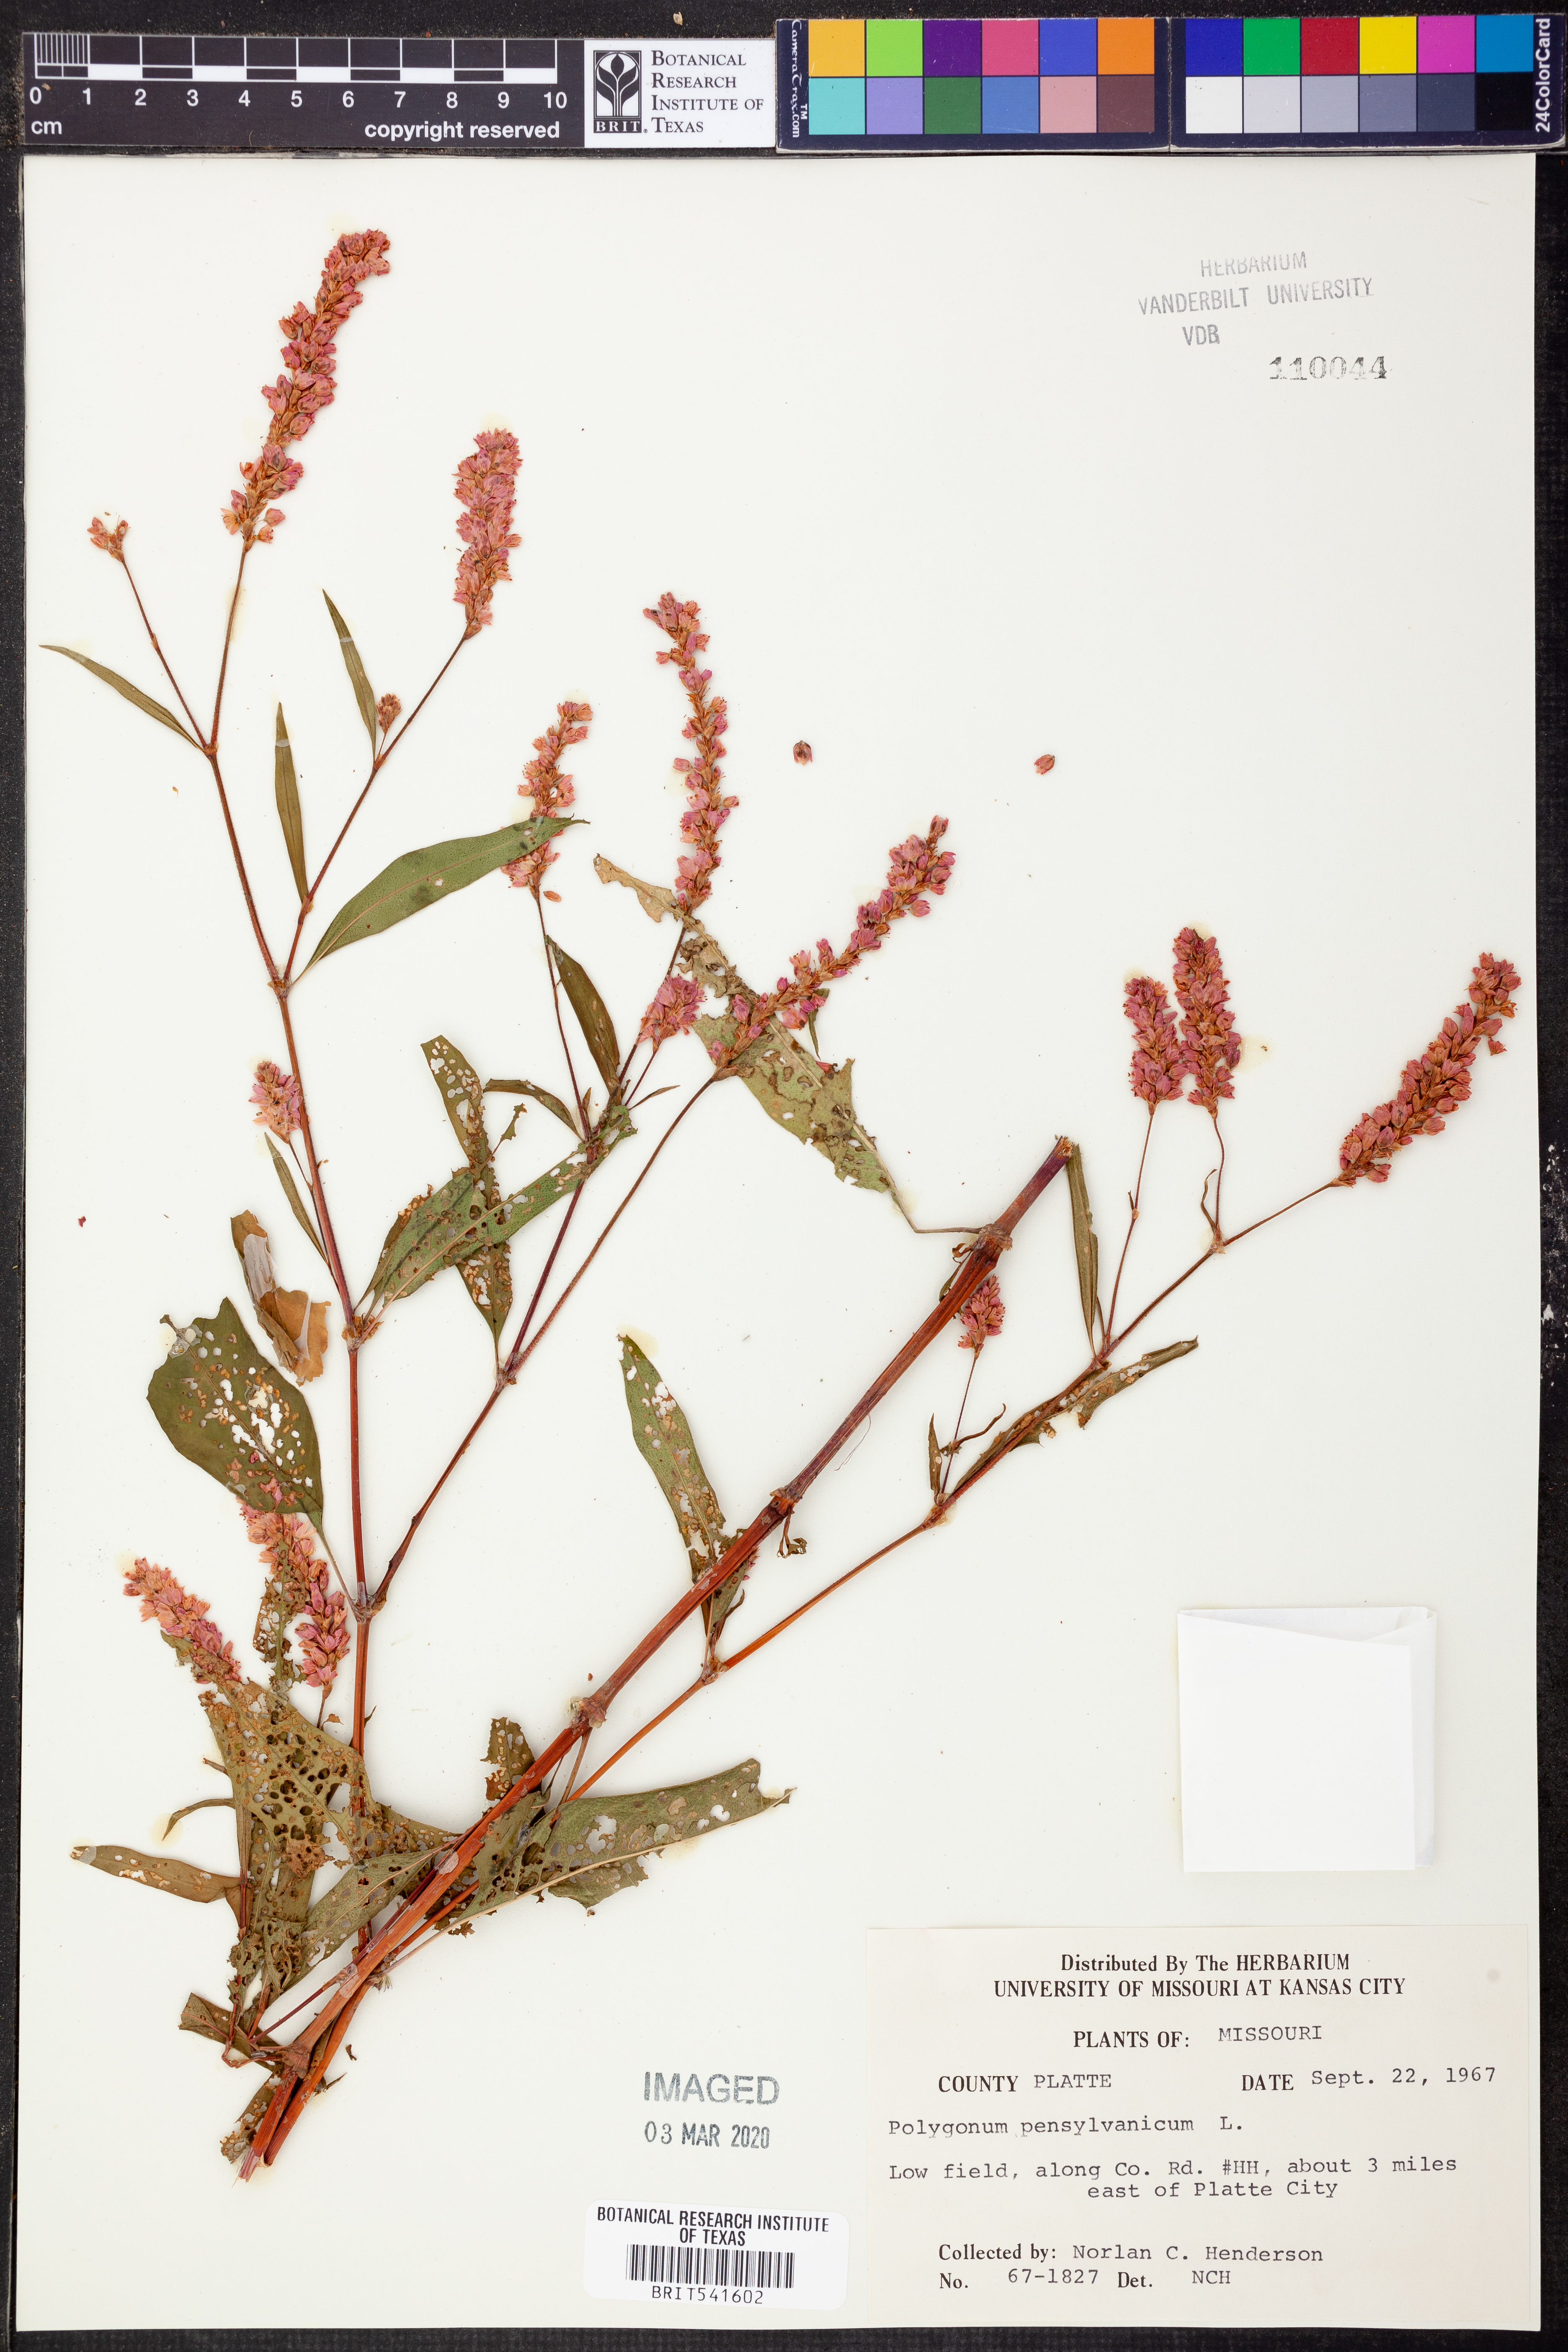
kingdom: Plantae
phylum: Tracheophyta
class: Magnoliopsida
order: Caryophyllales
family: Polygonaceae
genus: Persicaria
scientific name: Persicaria pensylvanica
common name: Pinkweed
